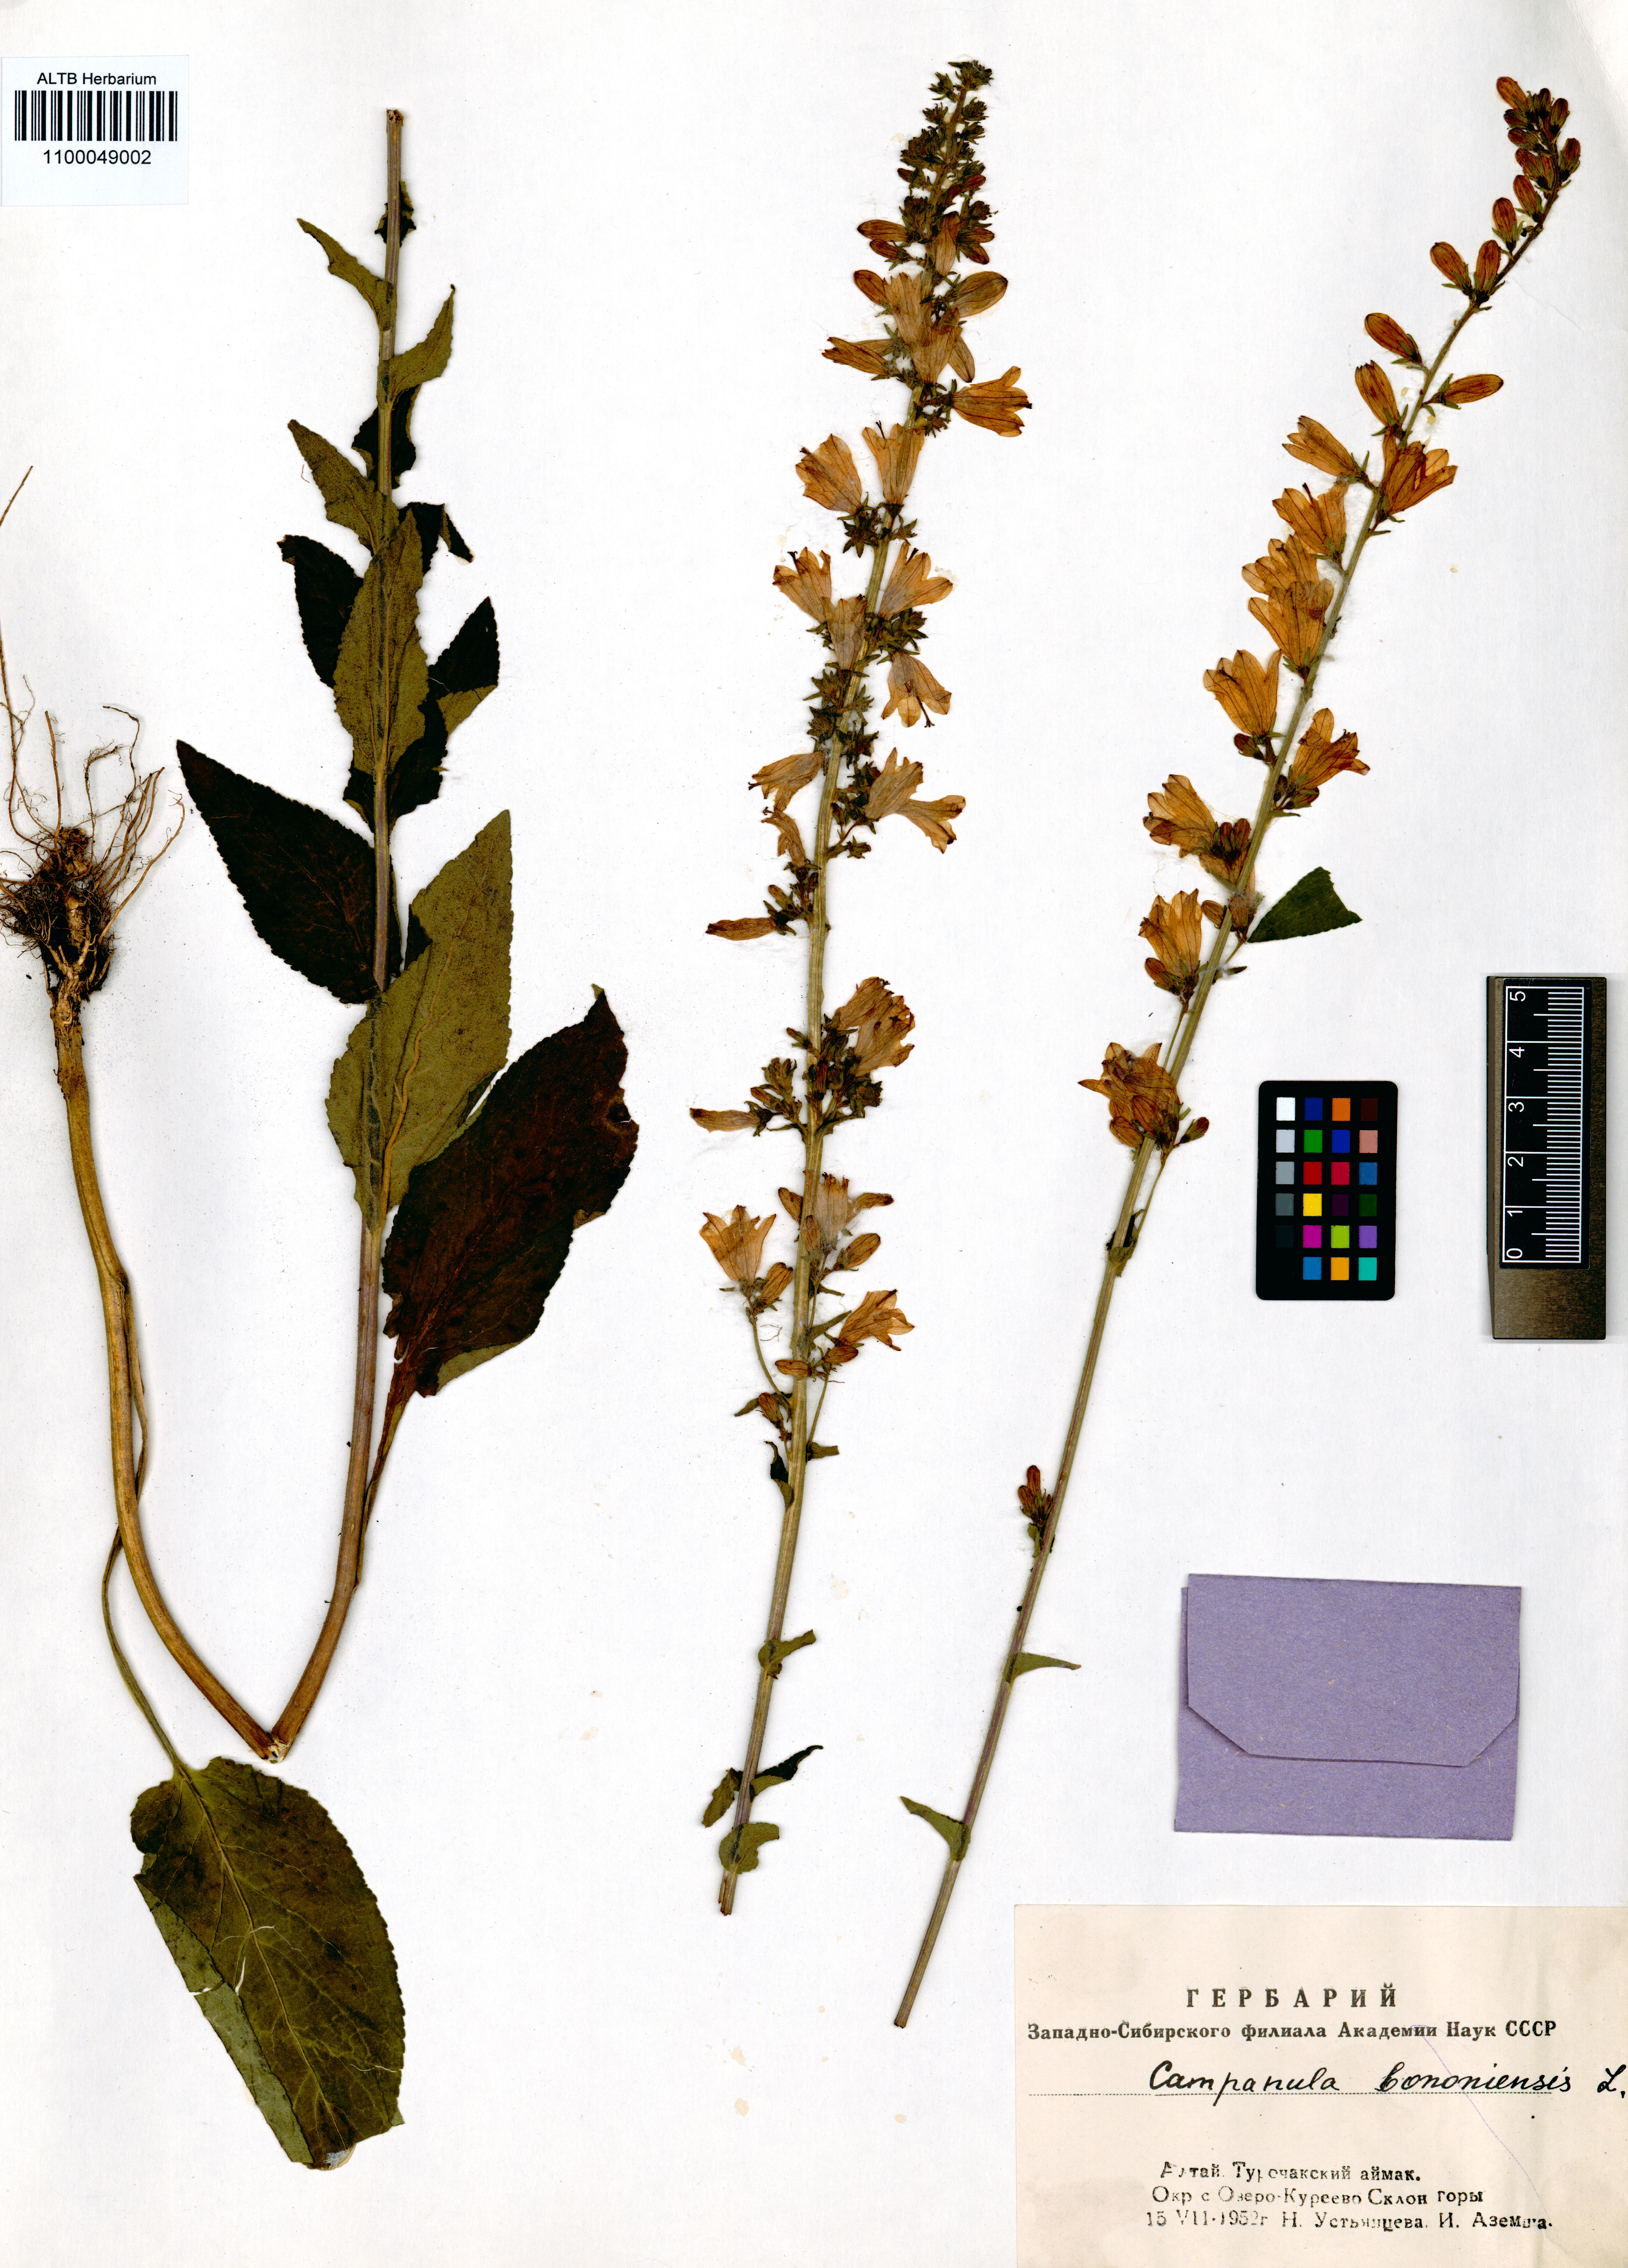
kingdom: Plantae
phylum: Tracheophyta
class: Magnoliopsida
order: Asterales
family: Campanulaceae
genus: Campanula
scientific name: Campanula bononiensis
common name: Pale bellflower
